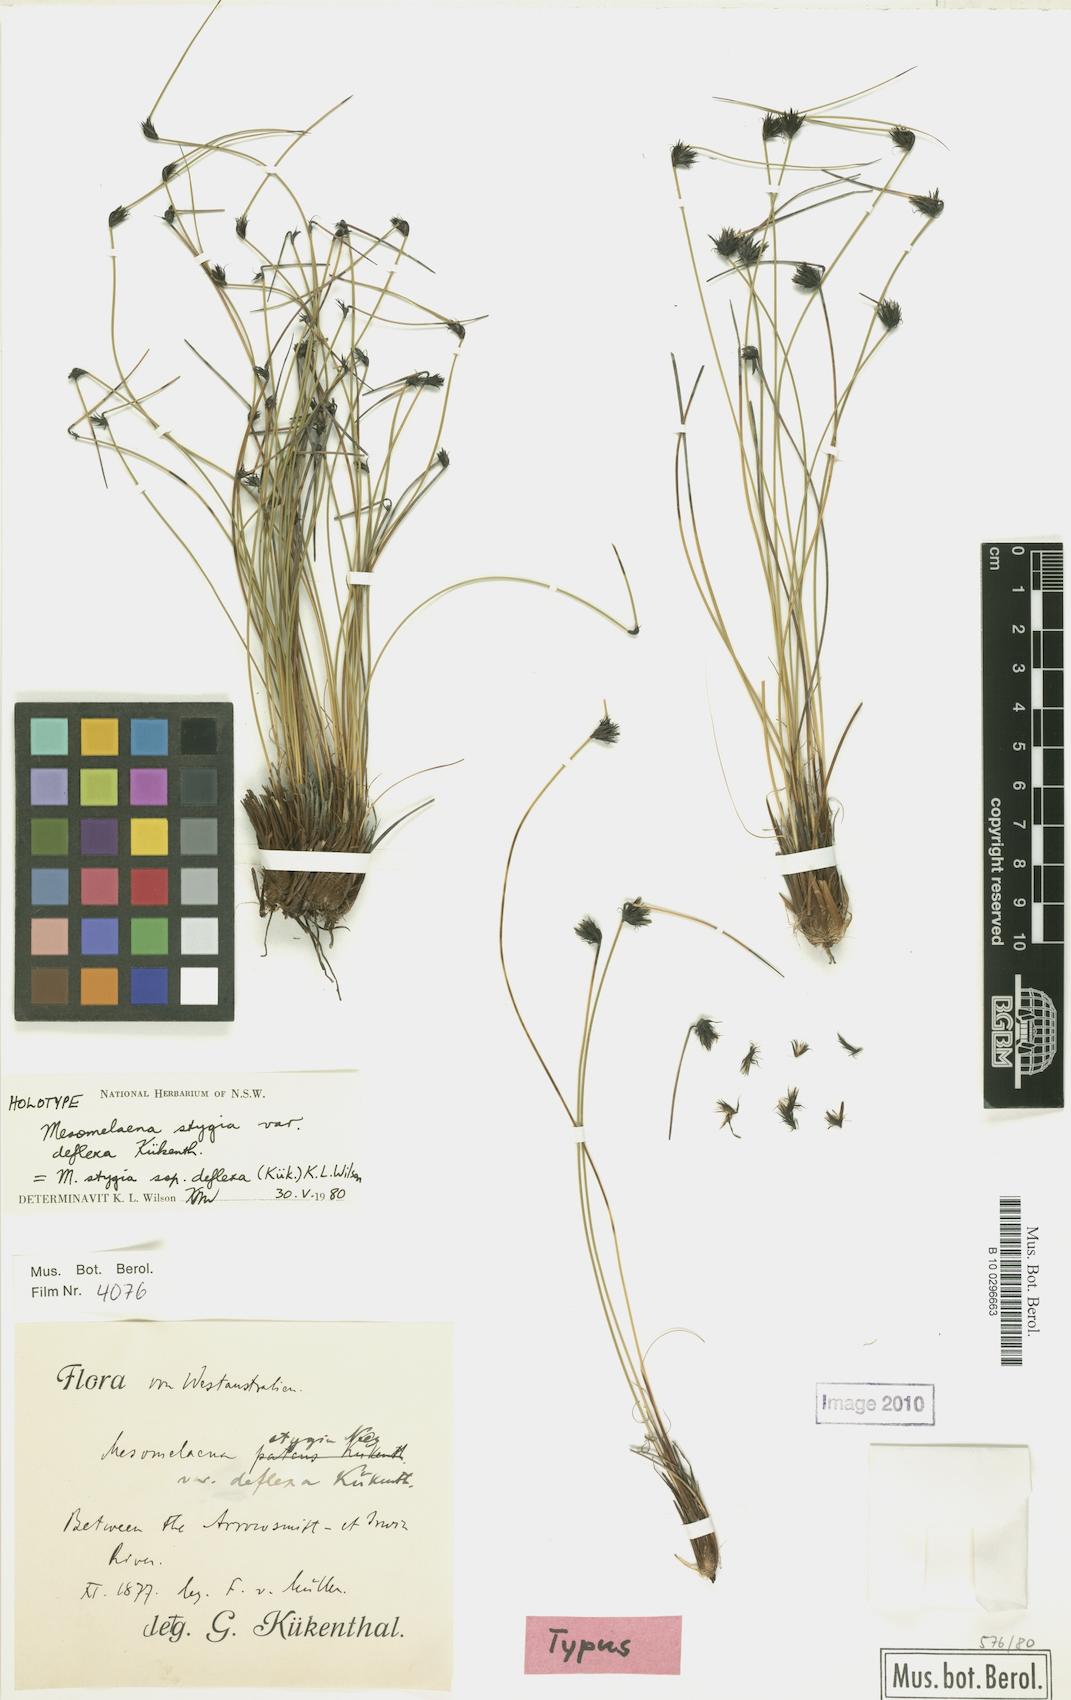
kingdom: Plantae
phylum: Tracheophyta
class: Liliopsida
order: Poales
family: Cyperaceae
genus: Mesomelaena
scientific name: Mesomelaena stygia
